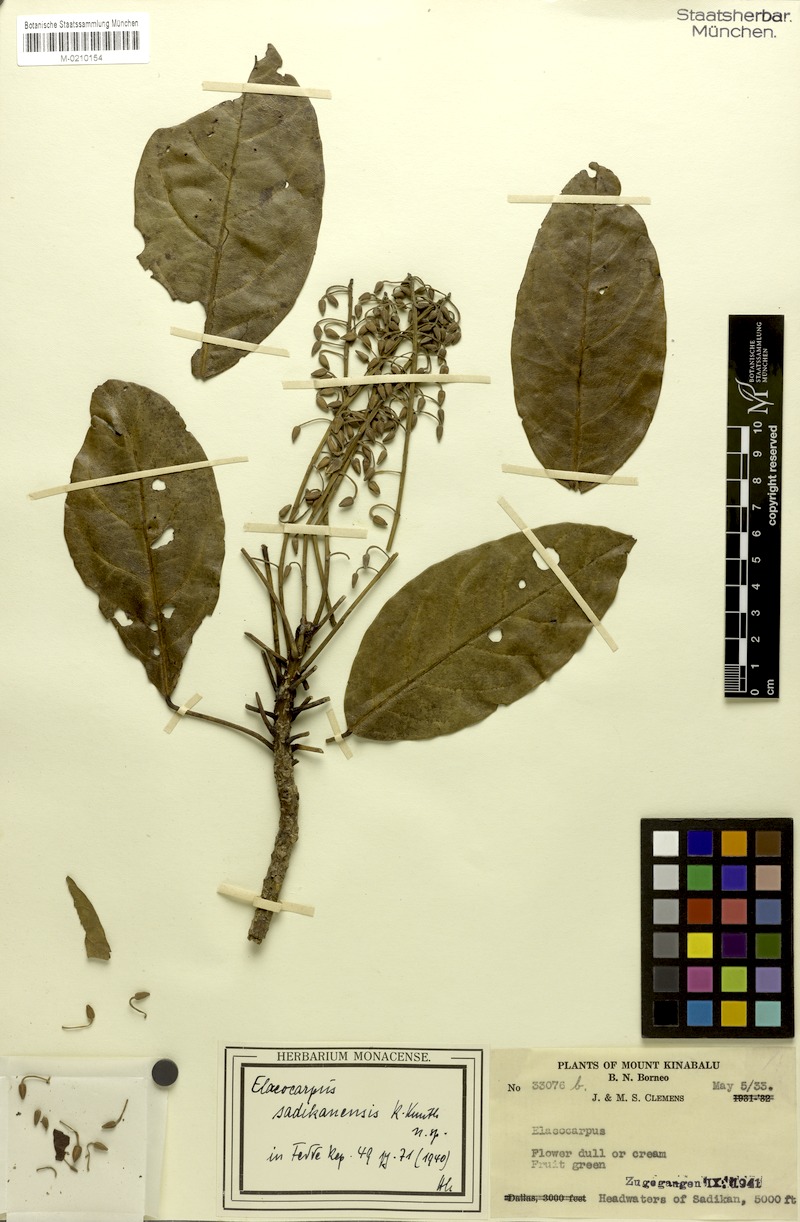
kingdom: Plantae
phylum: Tracheophyta
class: Magnoliopsida
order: Oxalidales
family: Elaeocarpaceae
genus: Elaeocarpus
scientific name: Elaeocarpus sadikanensis
